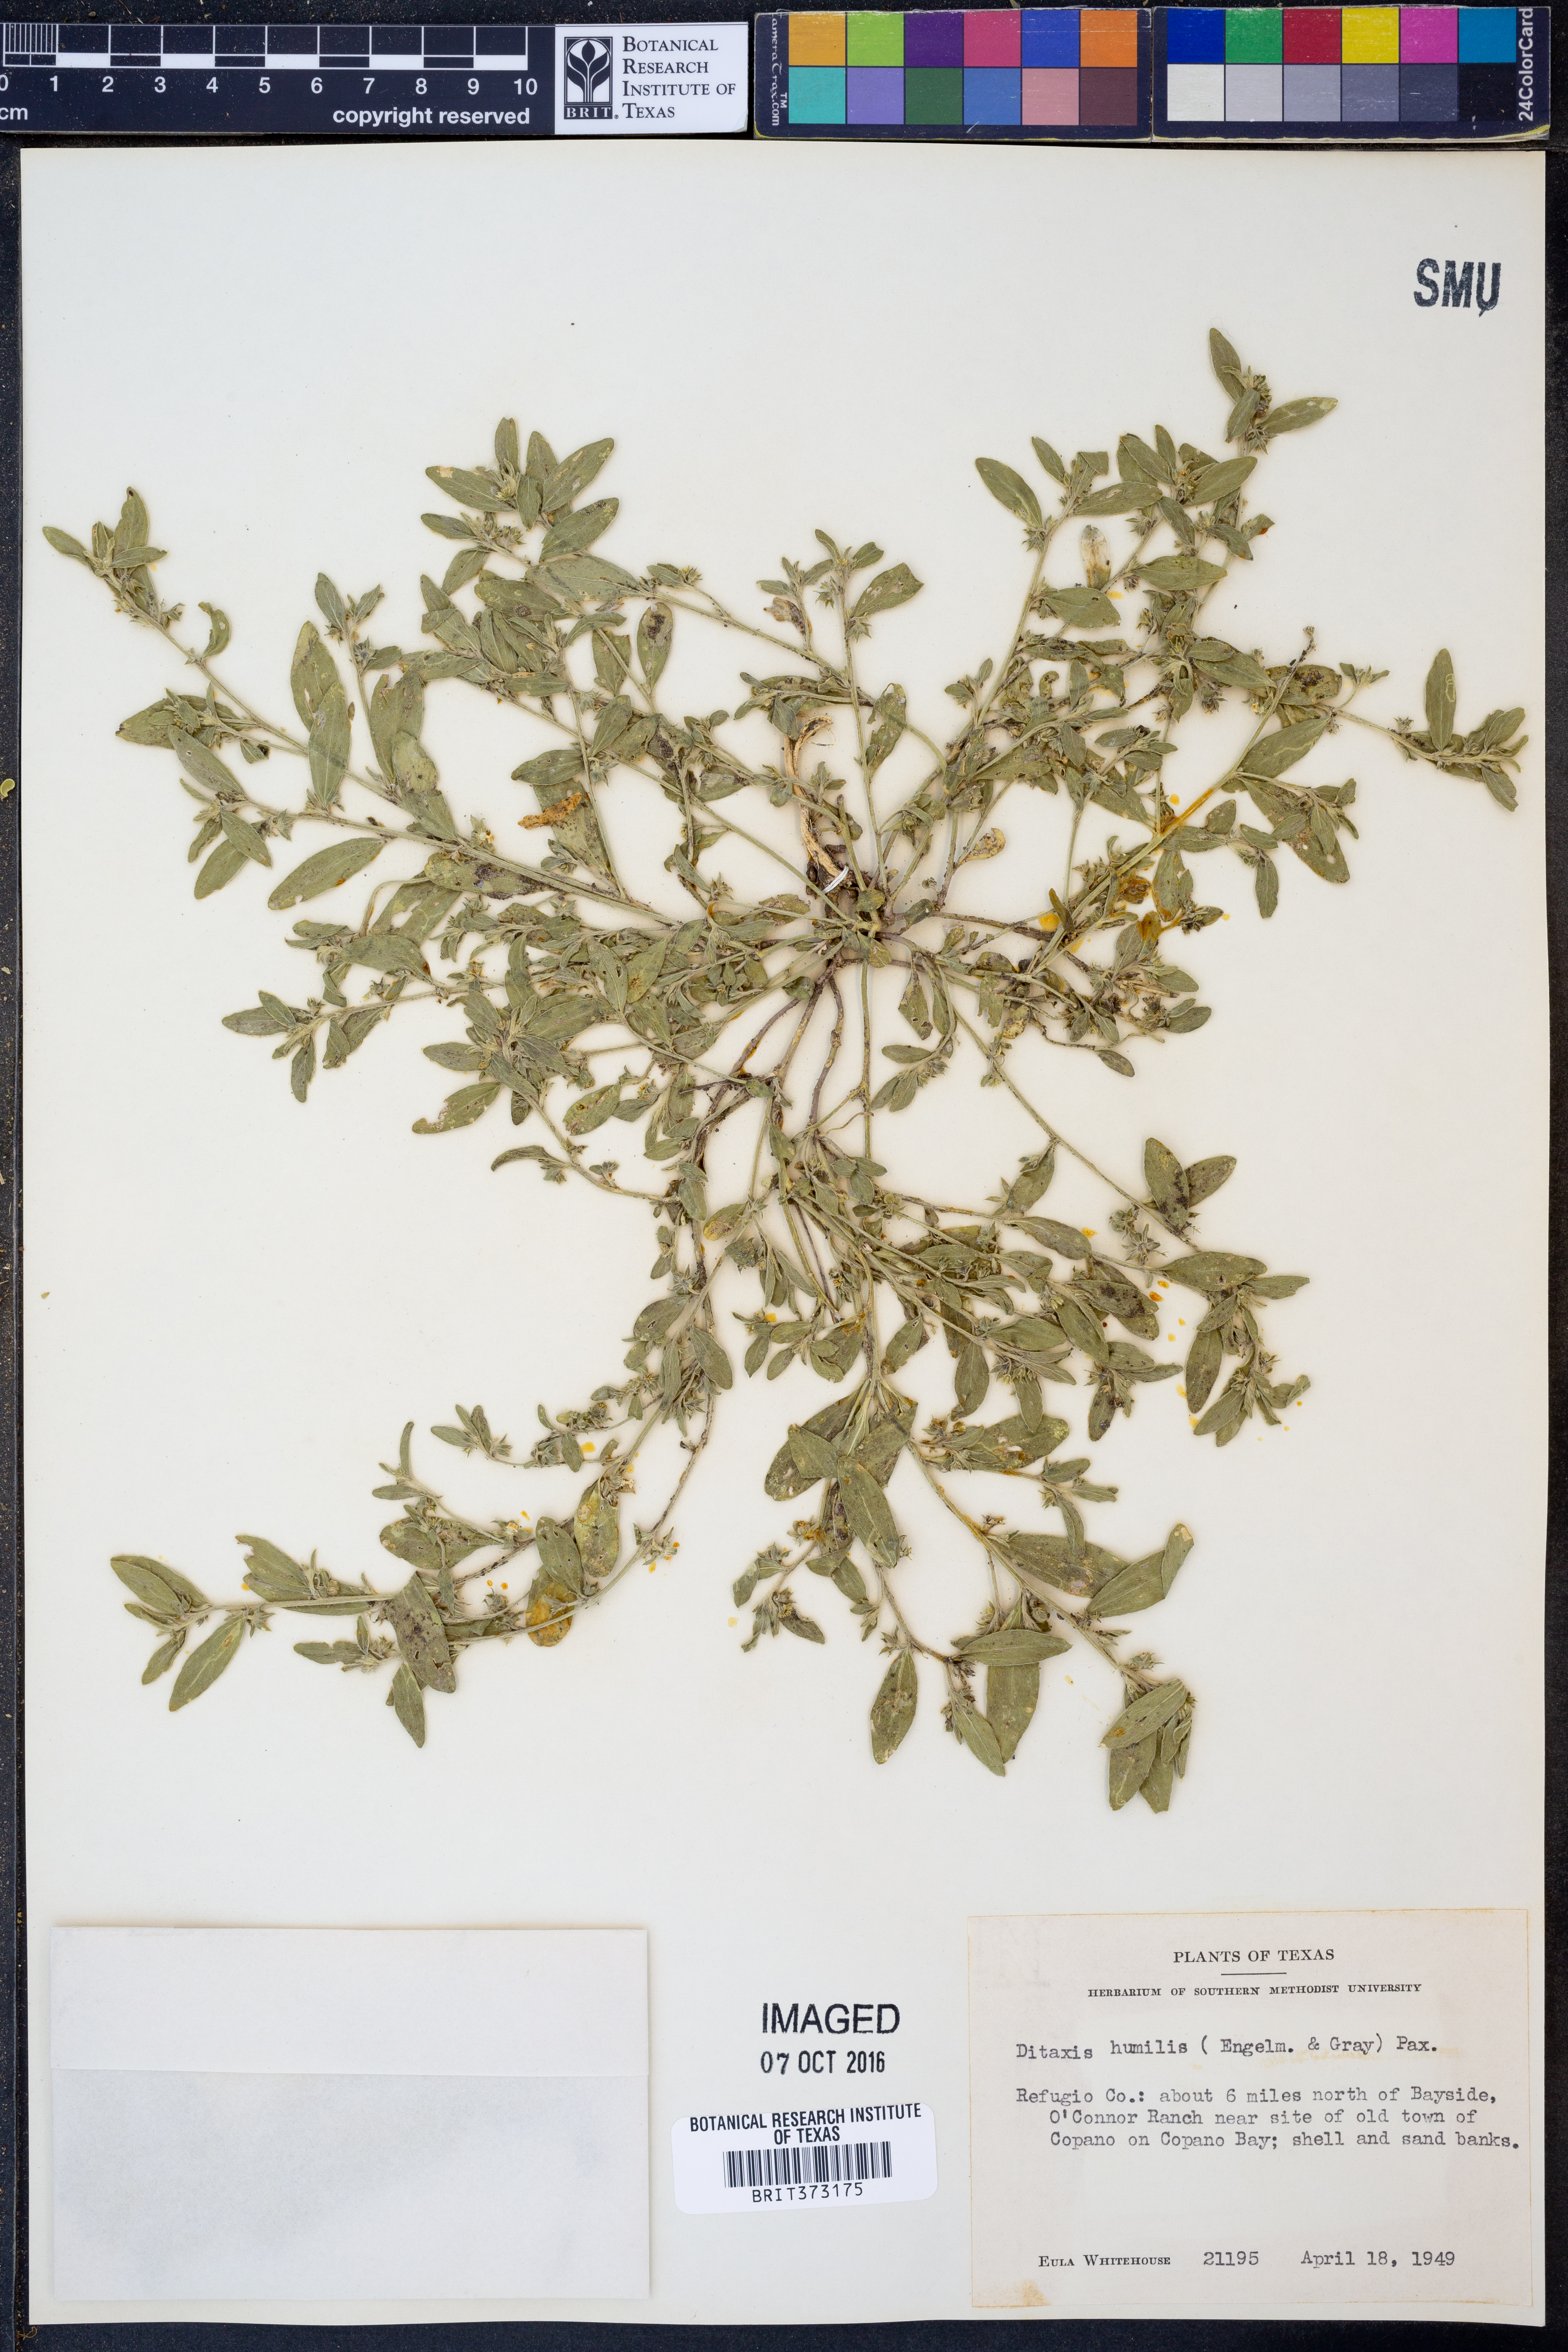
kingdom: Plantae
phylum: Tracheophyta
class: Magnoliopsida
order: Malpighiales
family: Euphorbiaceae
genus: Ditaxis
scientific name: Ditaxis humilis
